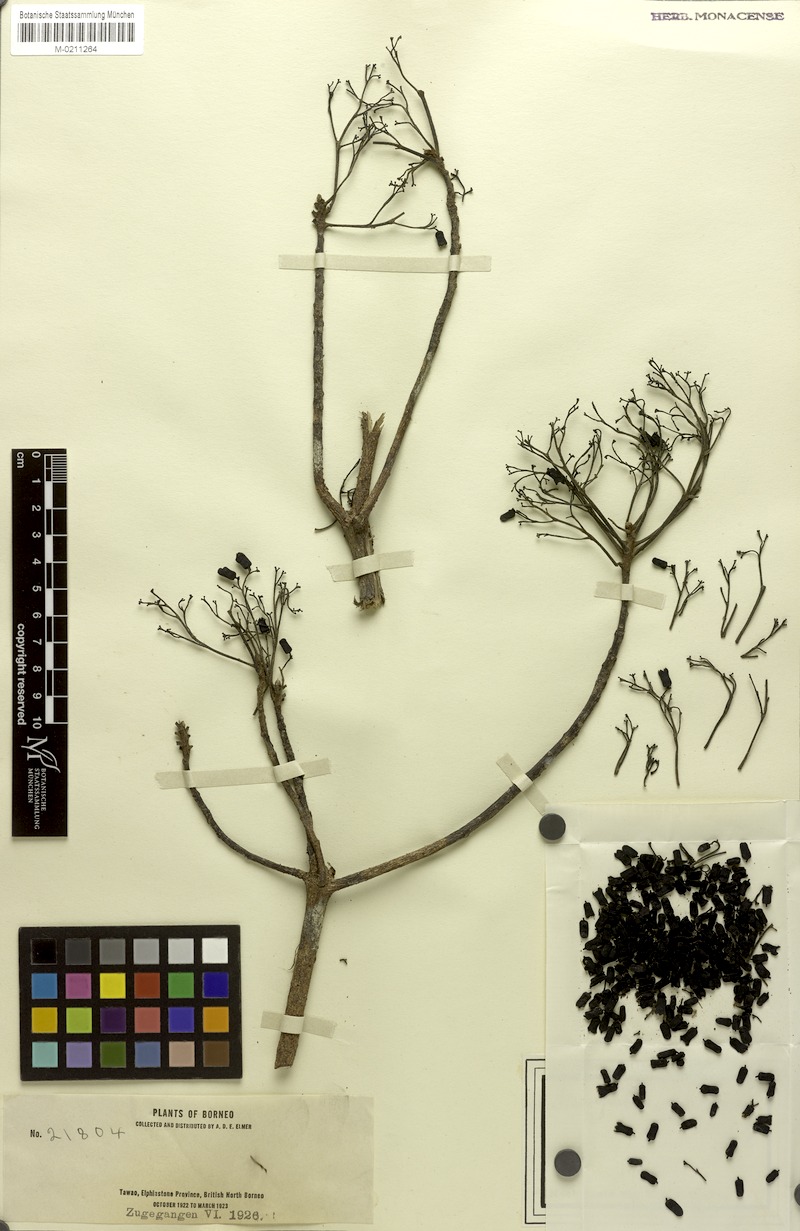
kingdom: Plantae
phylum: Tracheophyta
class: Magnoliopsida
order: Malvales
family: Malvaceae
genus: Pterocymbium
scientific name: Pterocymbium parviflorum
